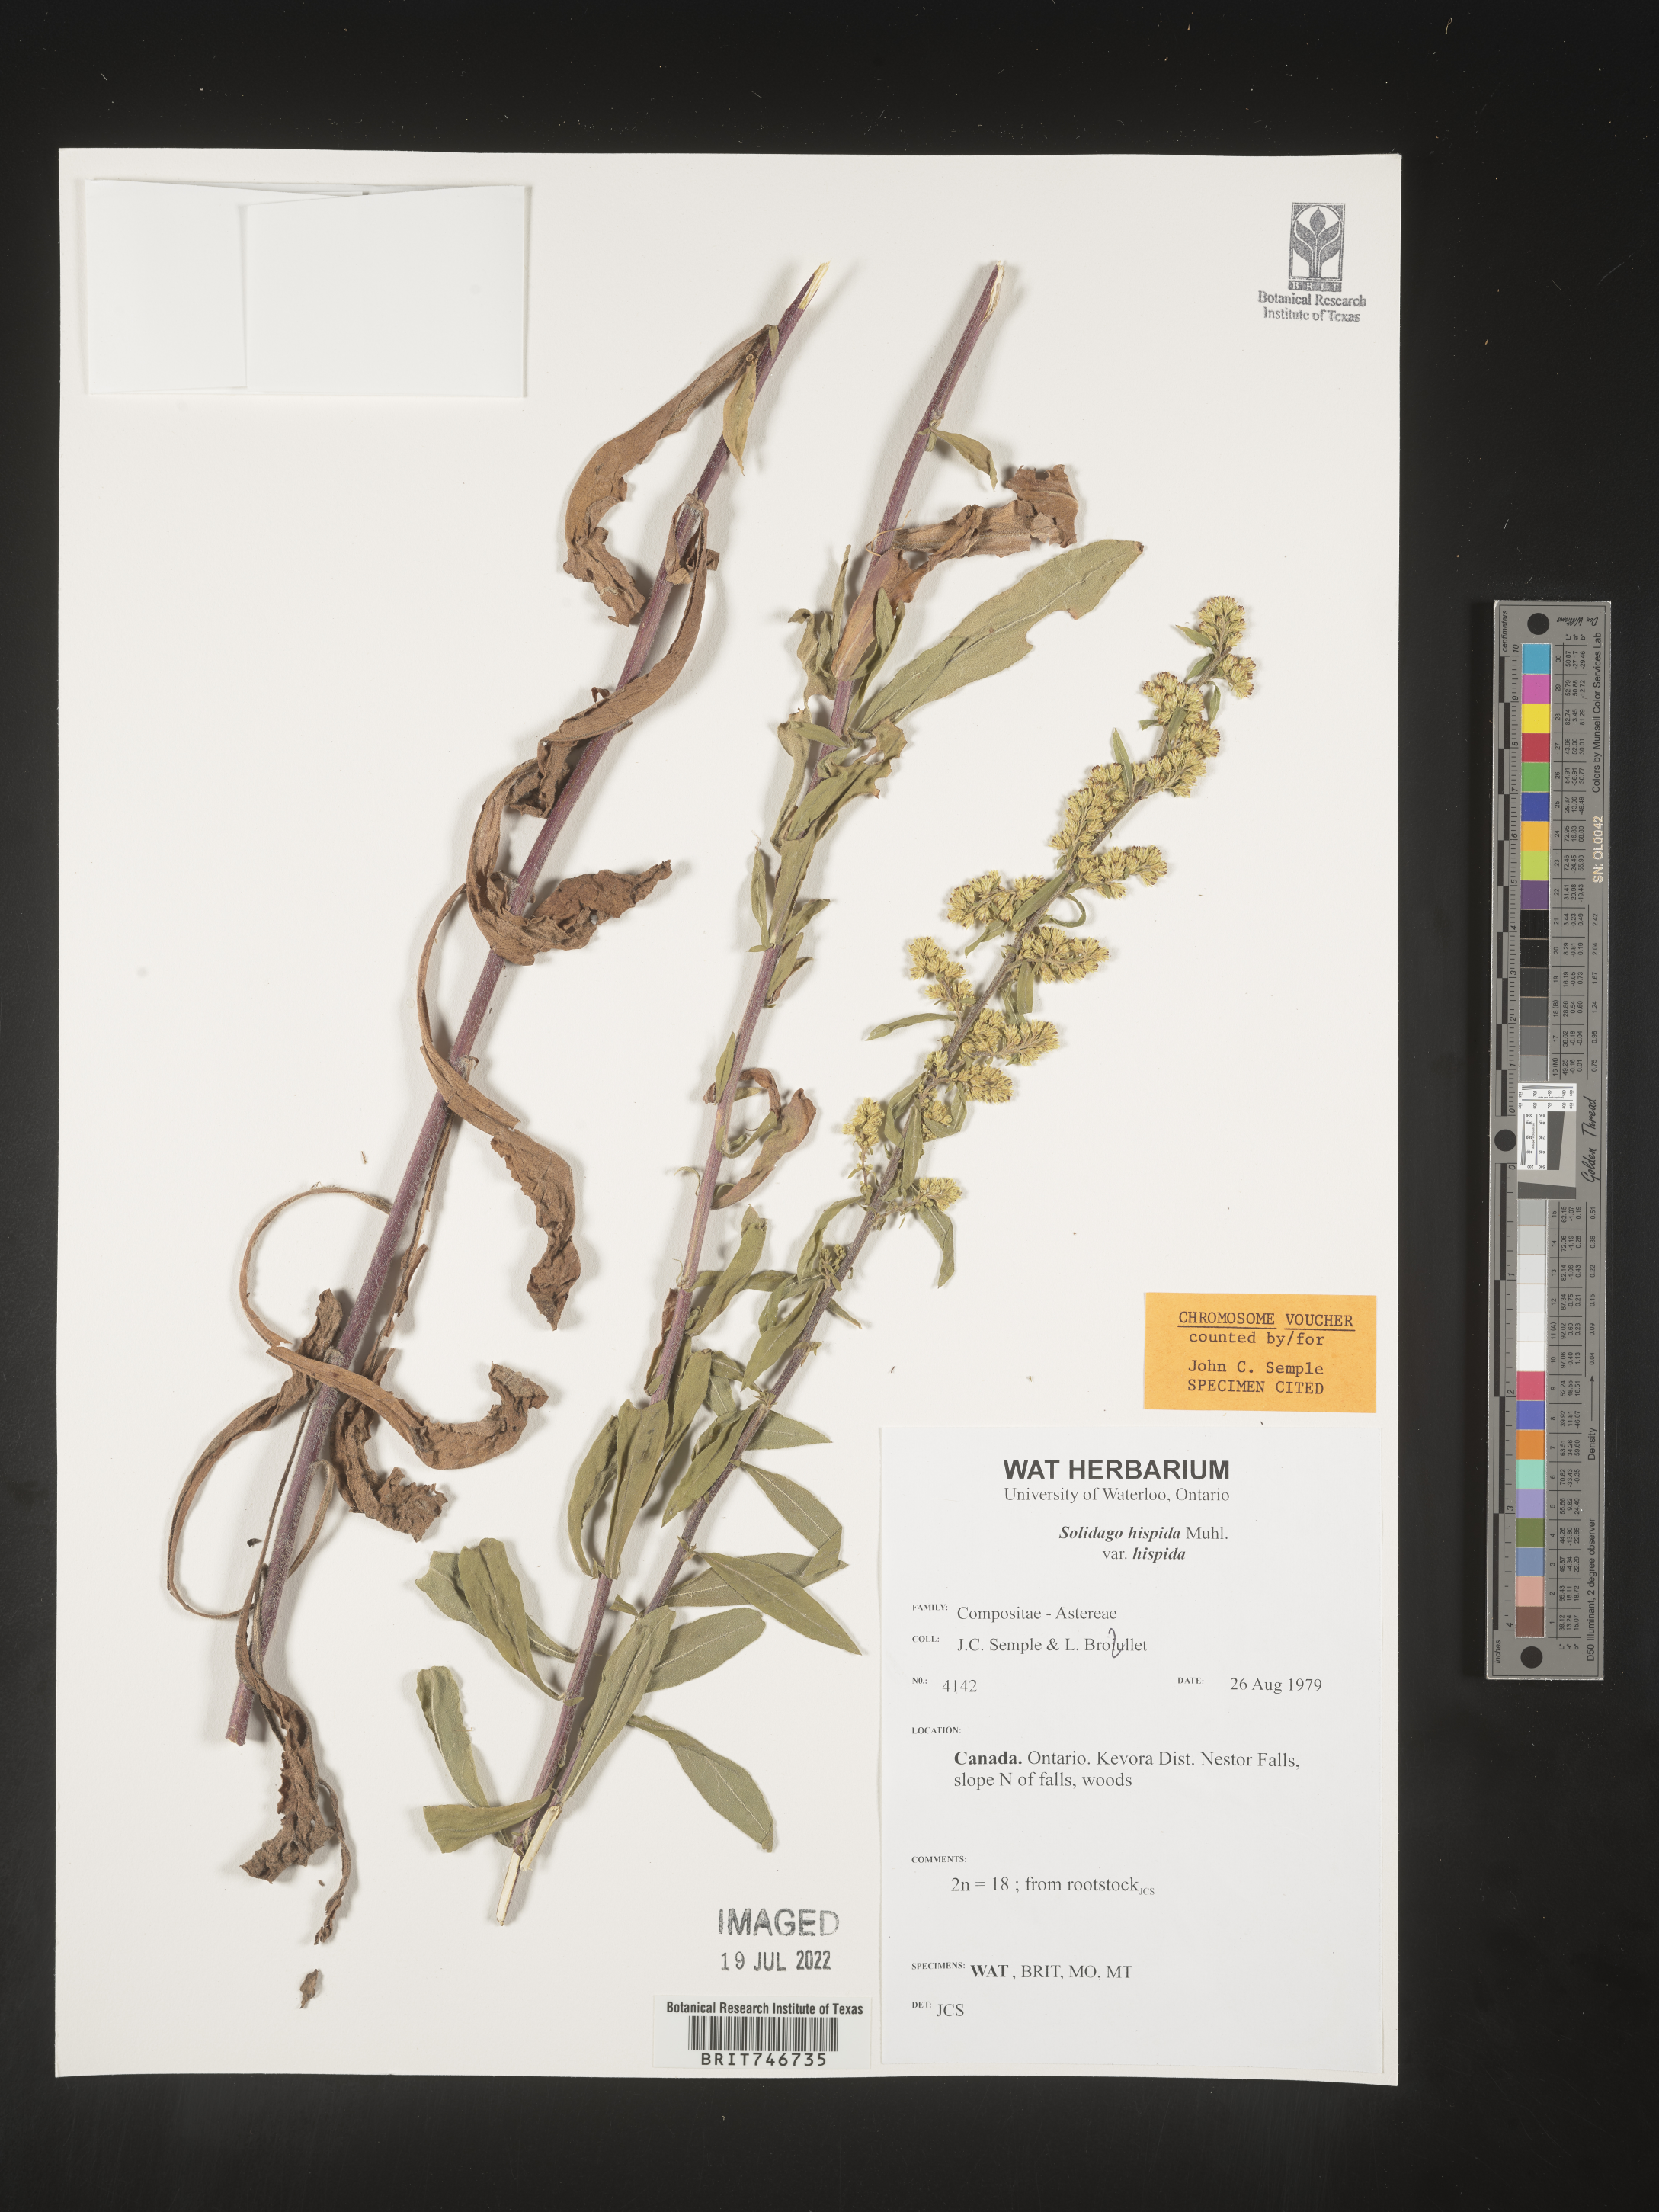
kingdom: Plantae
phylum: Tracheophyta
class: Magnoliopsida
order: Asterales
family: Asteraceae
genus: Solidago
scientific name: Solidago hispida
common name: Hairy goldenrod
